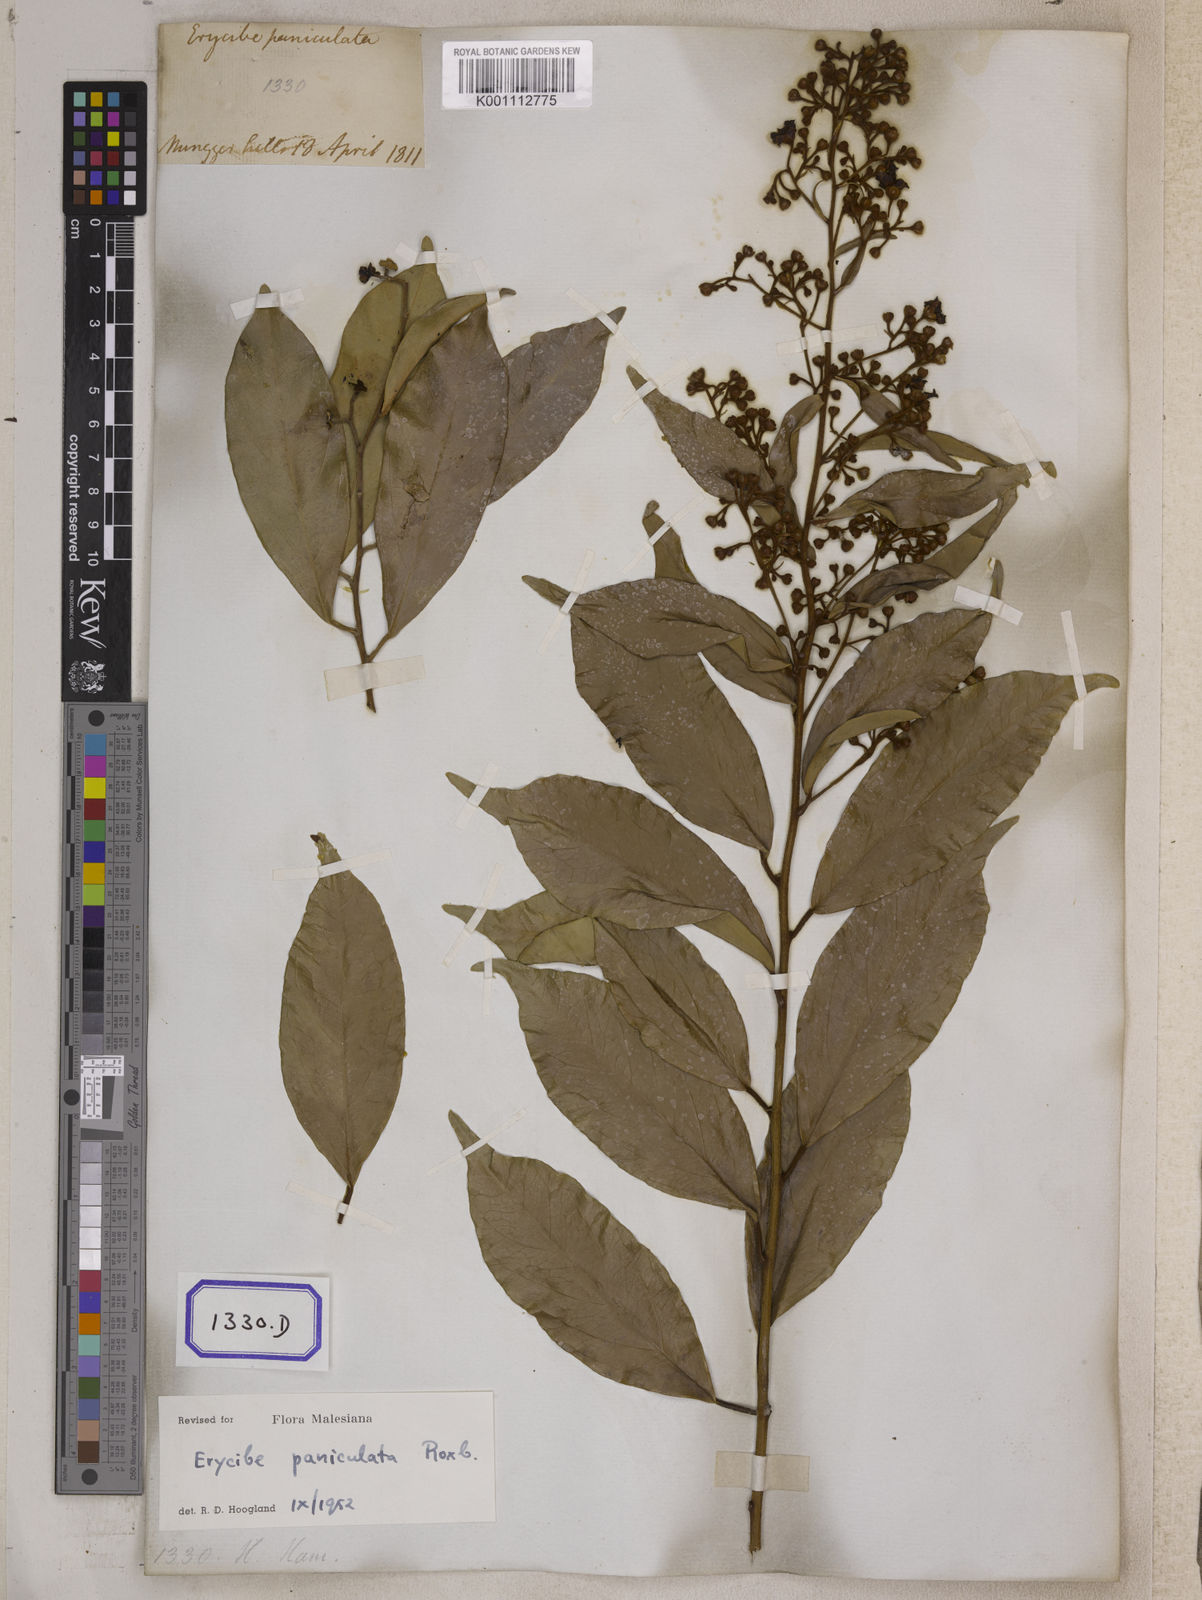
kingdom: Plantae
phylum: Tracheophyta
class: Magnoliopsida
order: Solanales
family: Convolvulaceae
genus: Erycibe
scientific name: Erycibe paniculata
